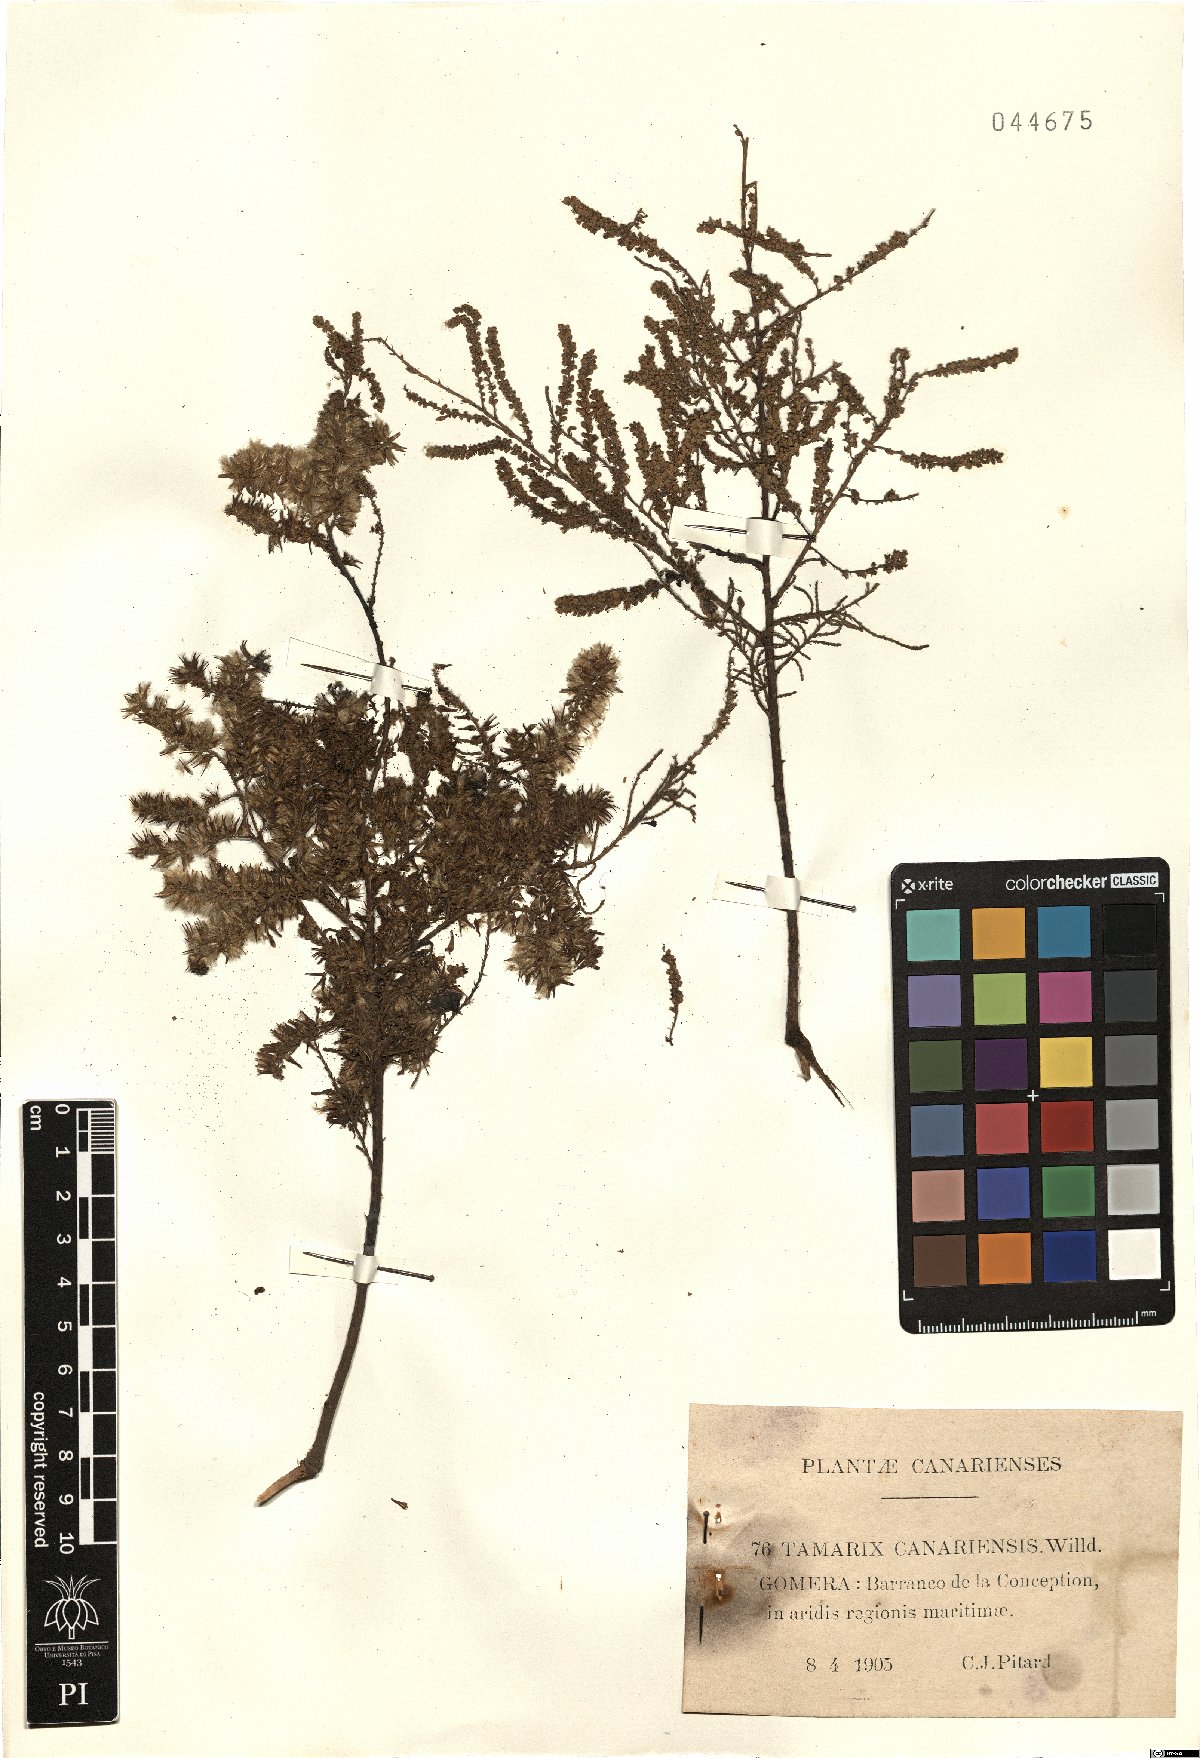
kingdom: Plantae
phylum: Tracheophyta
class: Magnoliopsida
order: Caryophyllales
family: Tamaricaceae
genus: Tamarix
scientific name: Tamarix canariensis
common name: Canary island tamarisk
